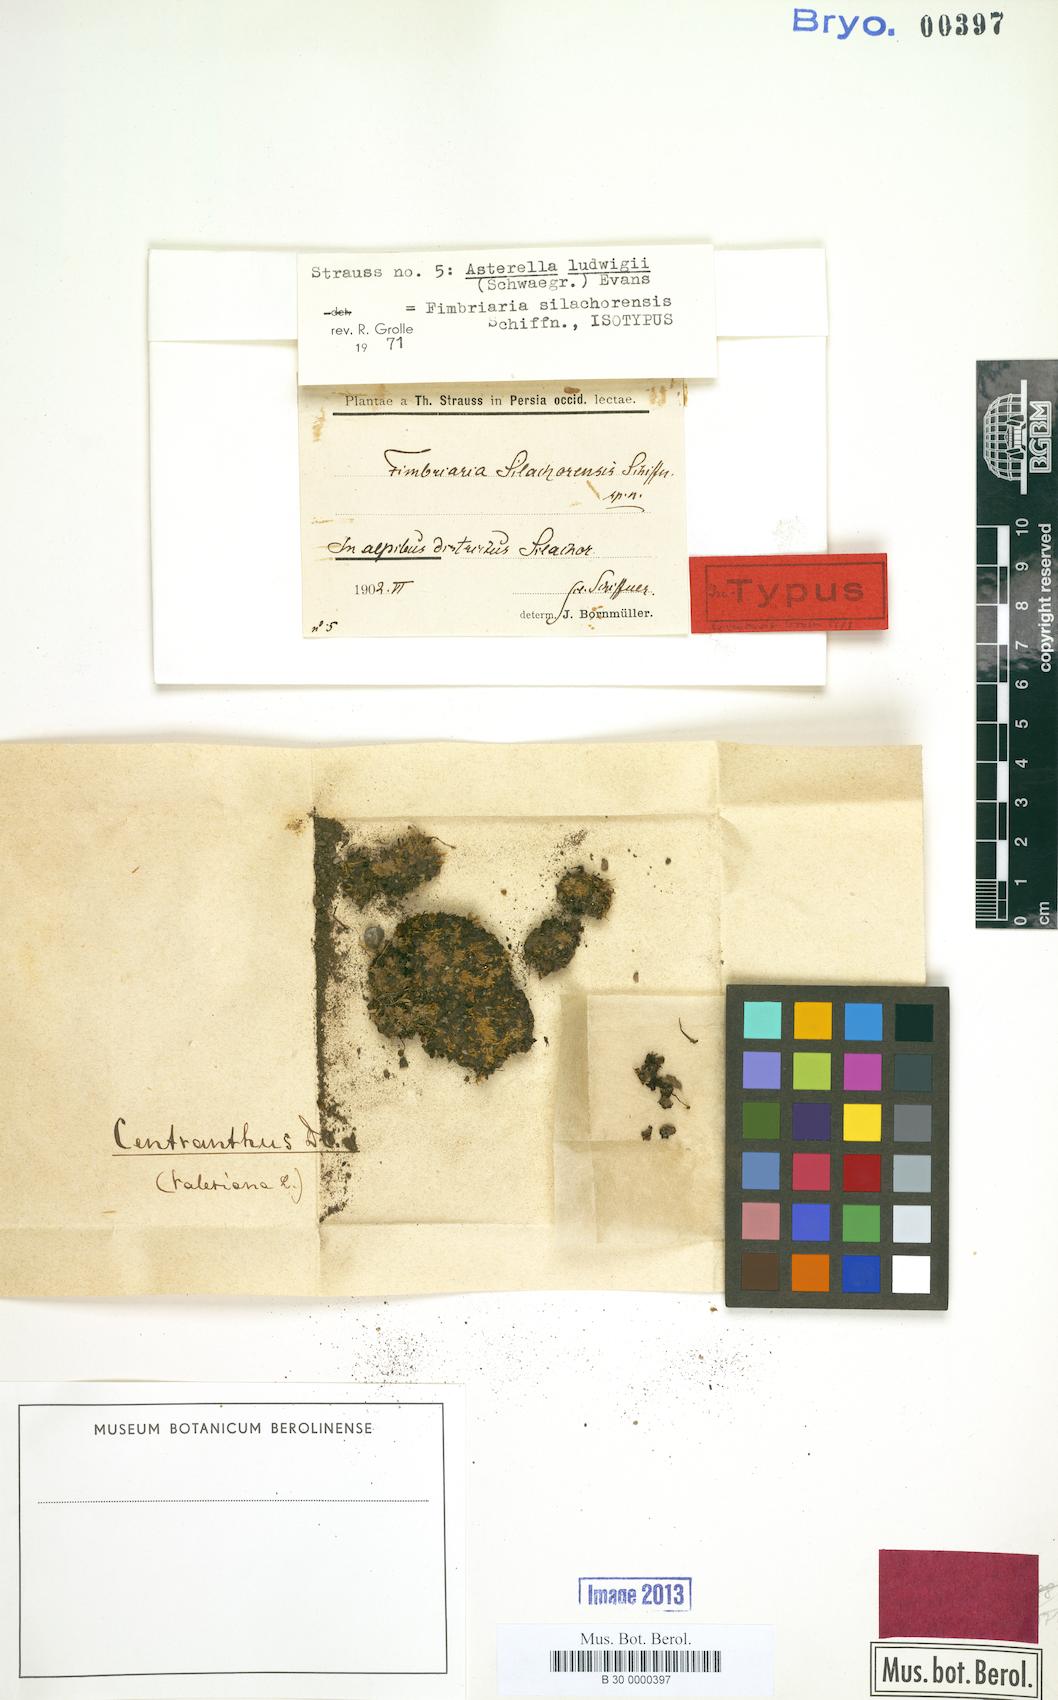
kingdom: Plantae
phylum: Marchantiophyta
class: Marchantiopsida
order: Marchantiales
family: Aytoniaceae
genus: Mannia
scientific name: Mannia triandra
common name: Field macewort
